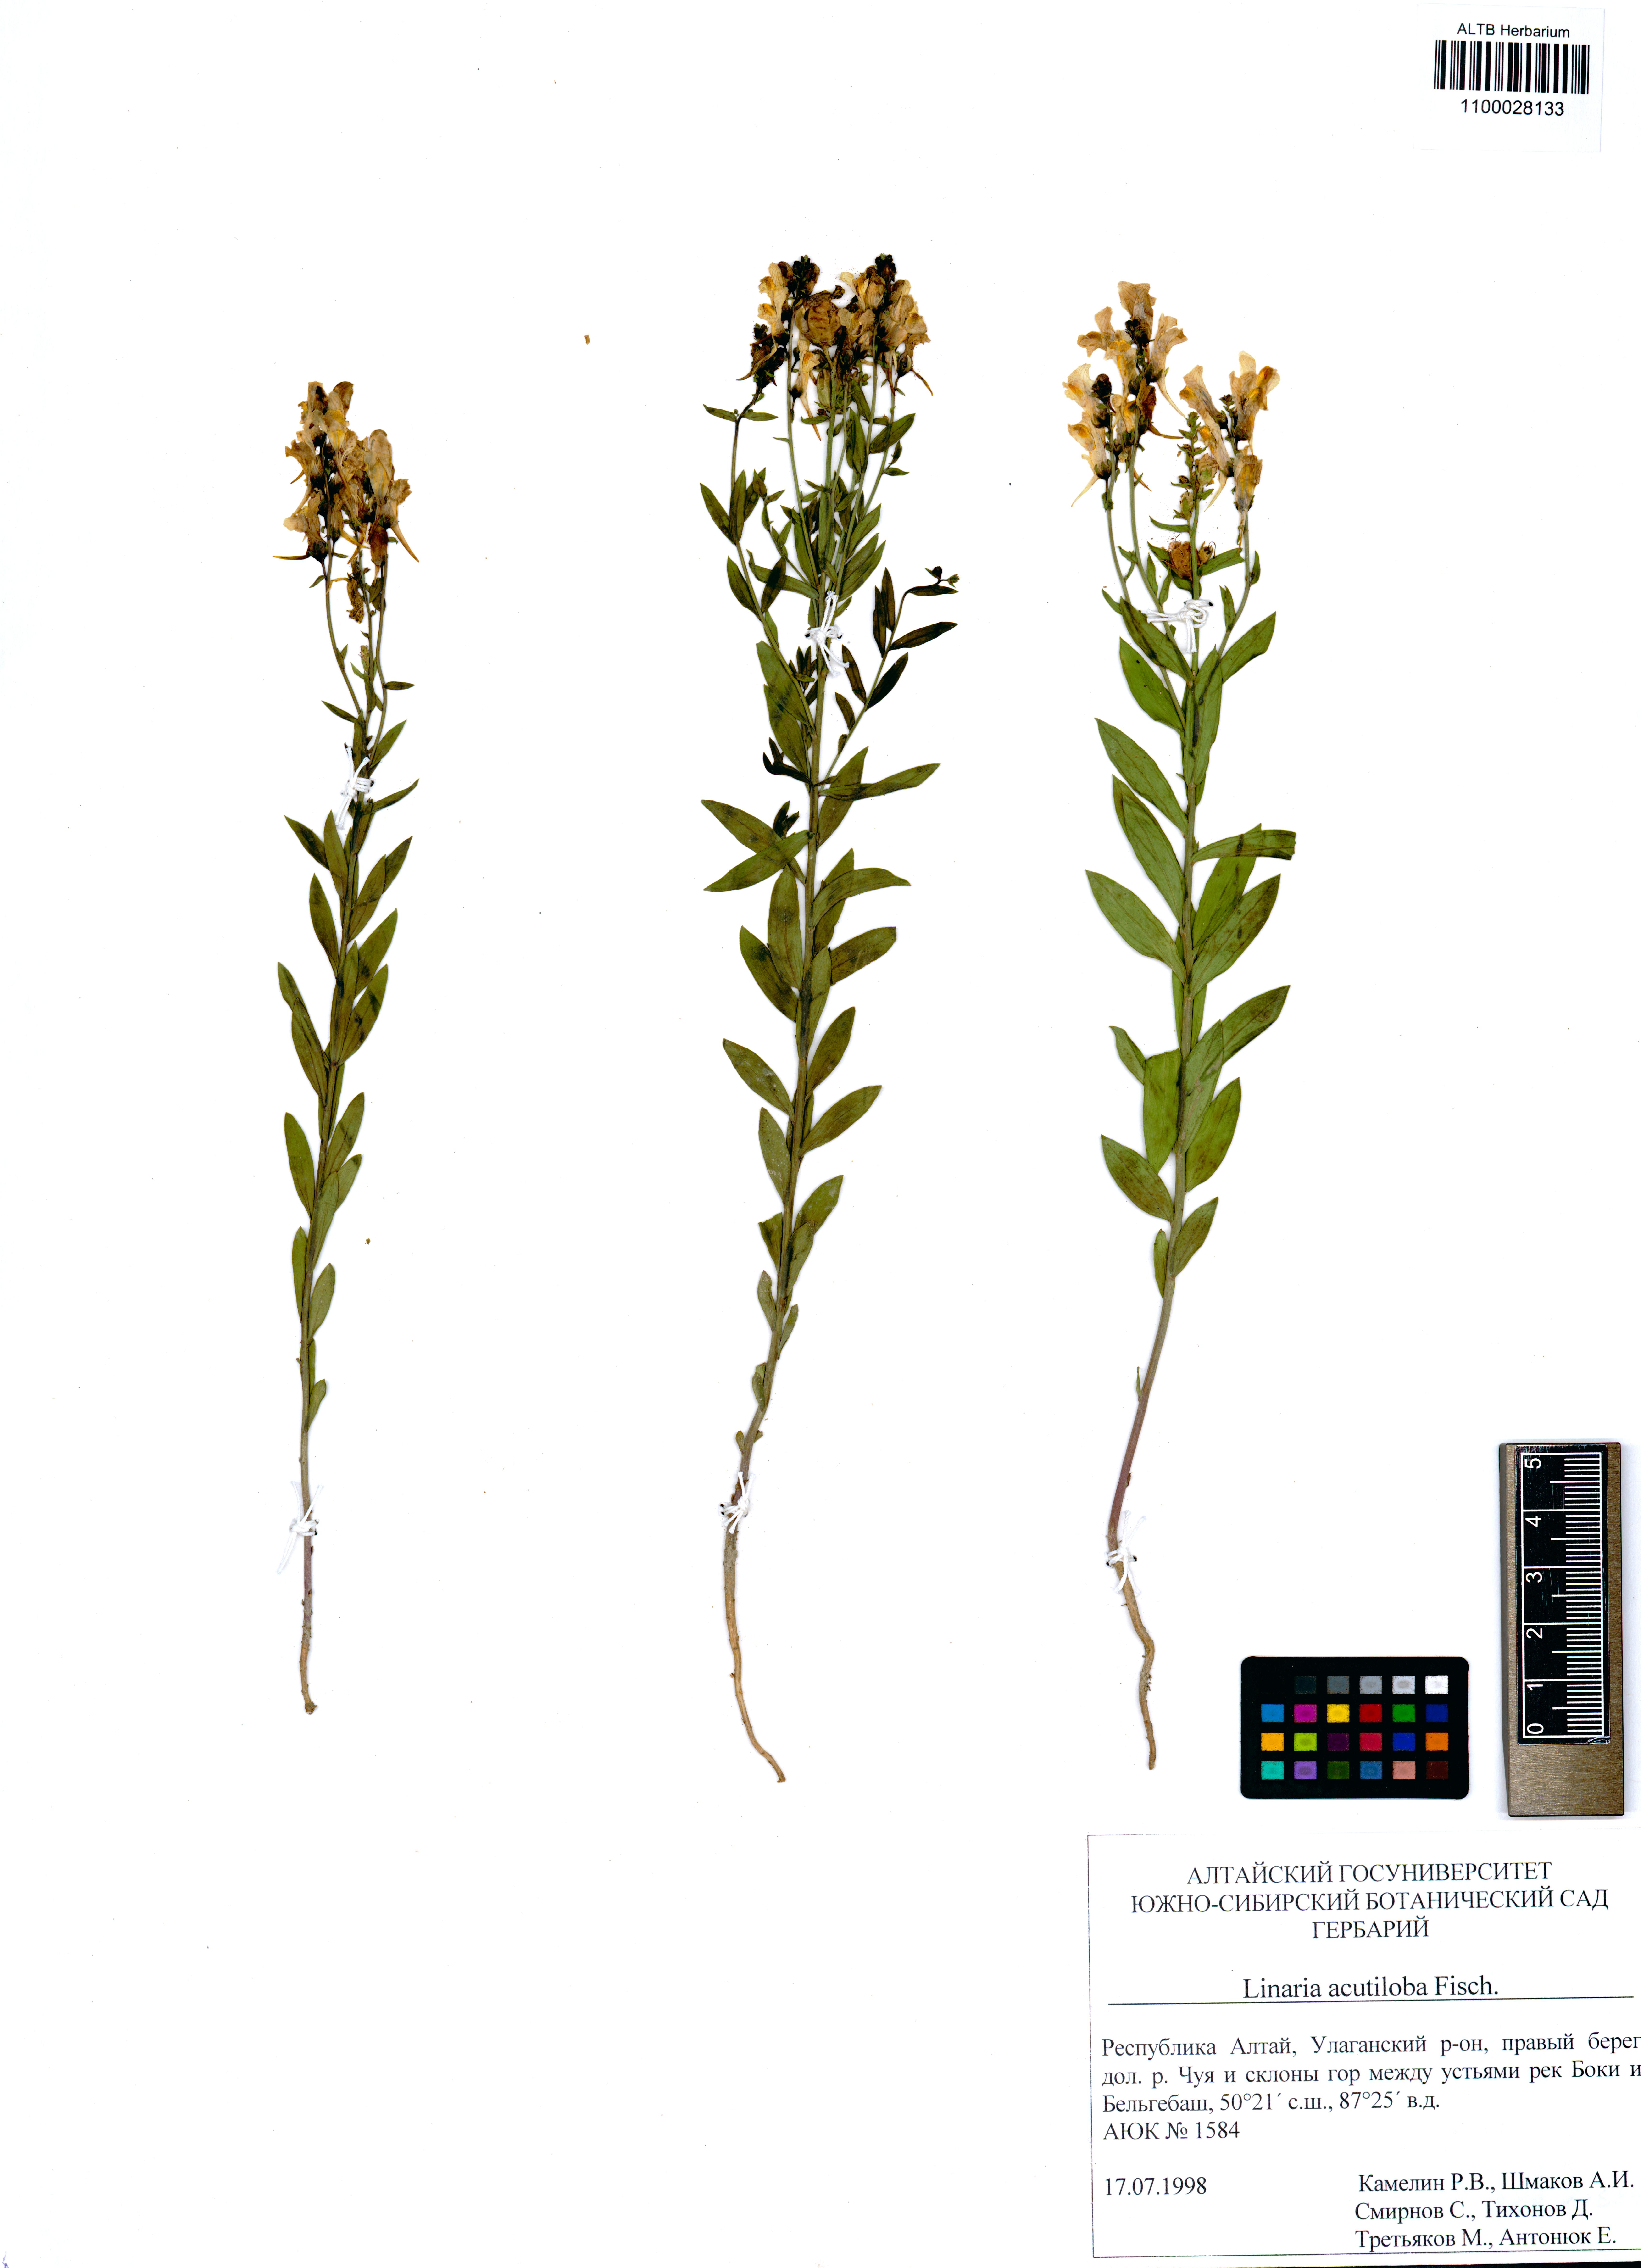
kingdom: Plantae
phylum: Tracheophyta
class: Magnoliopsida
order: Lamiales
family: Plantaginaceae
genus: Linaria
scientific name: Linaria acutiloba
